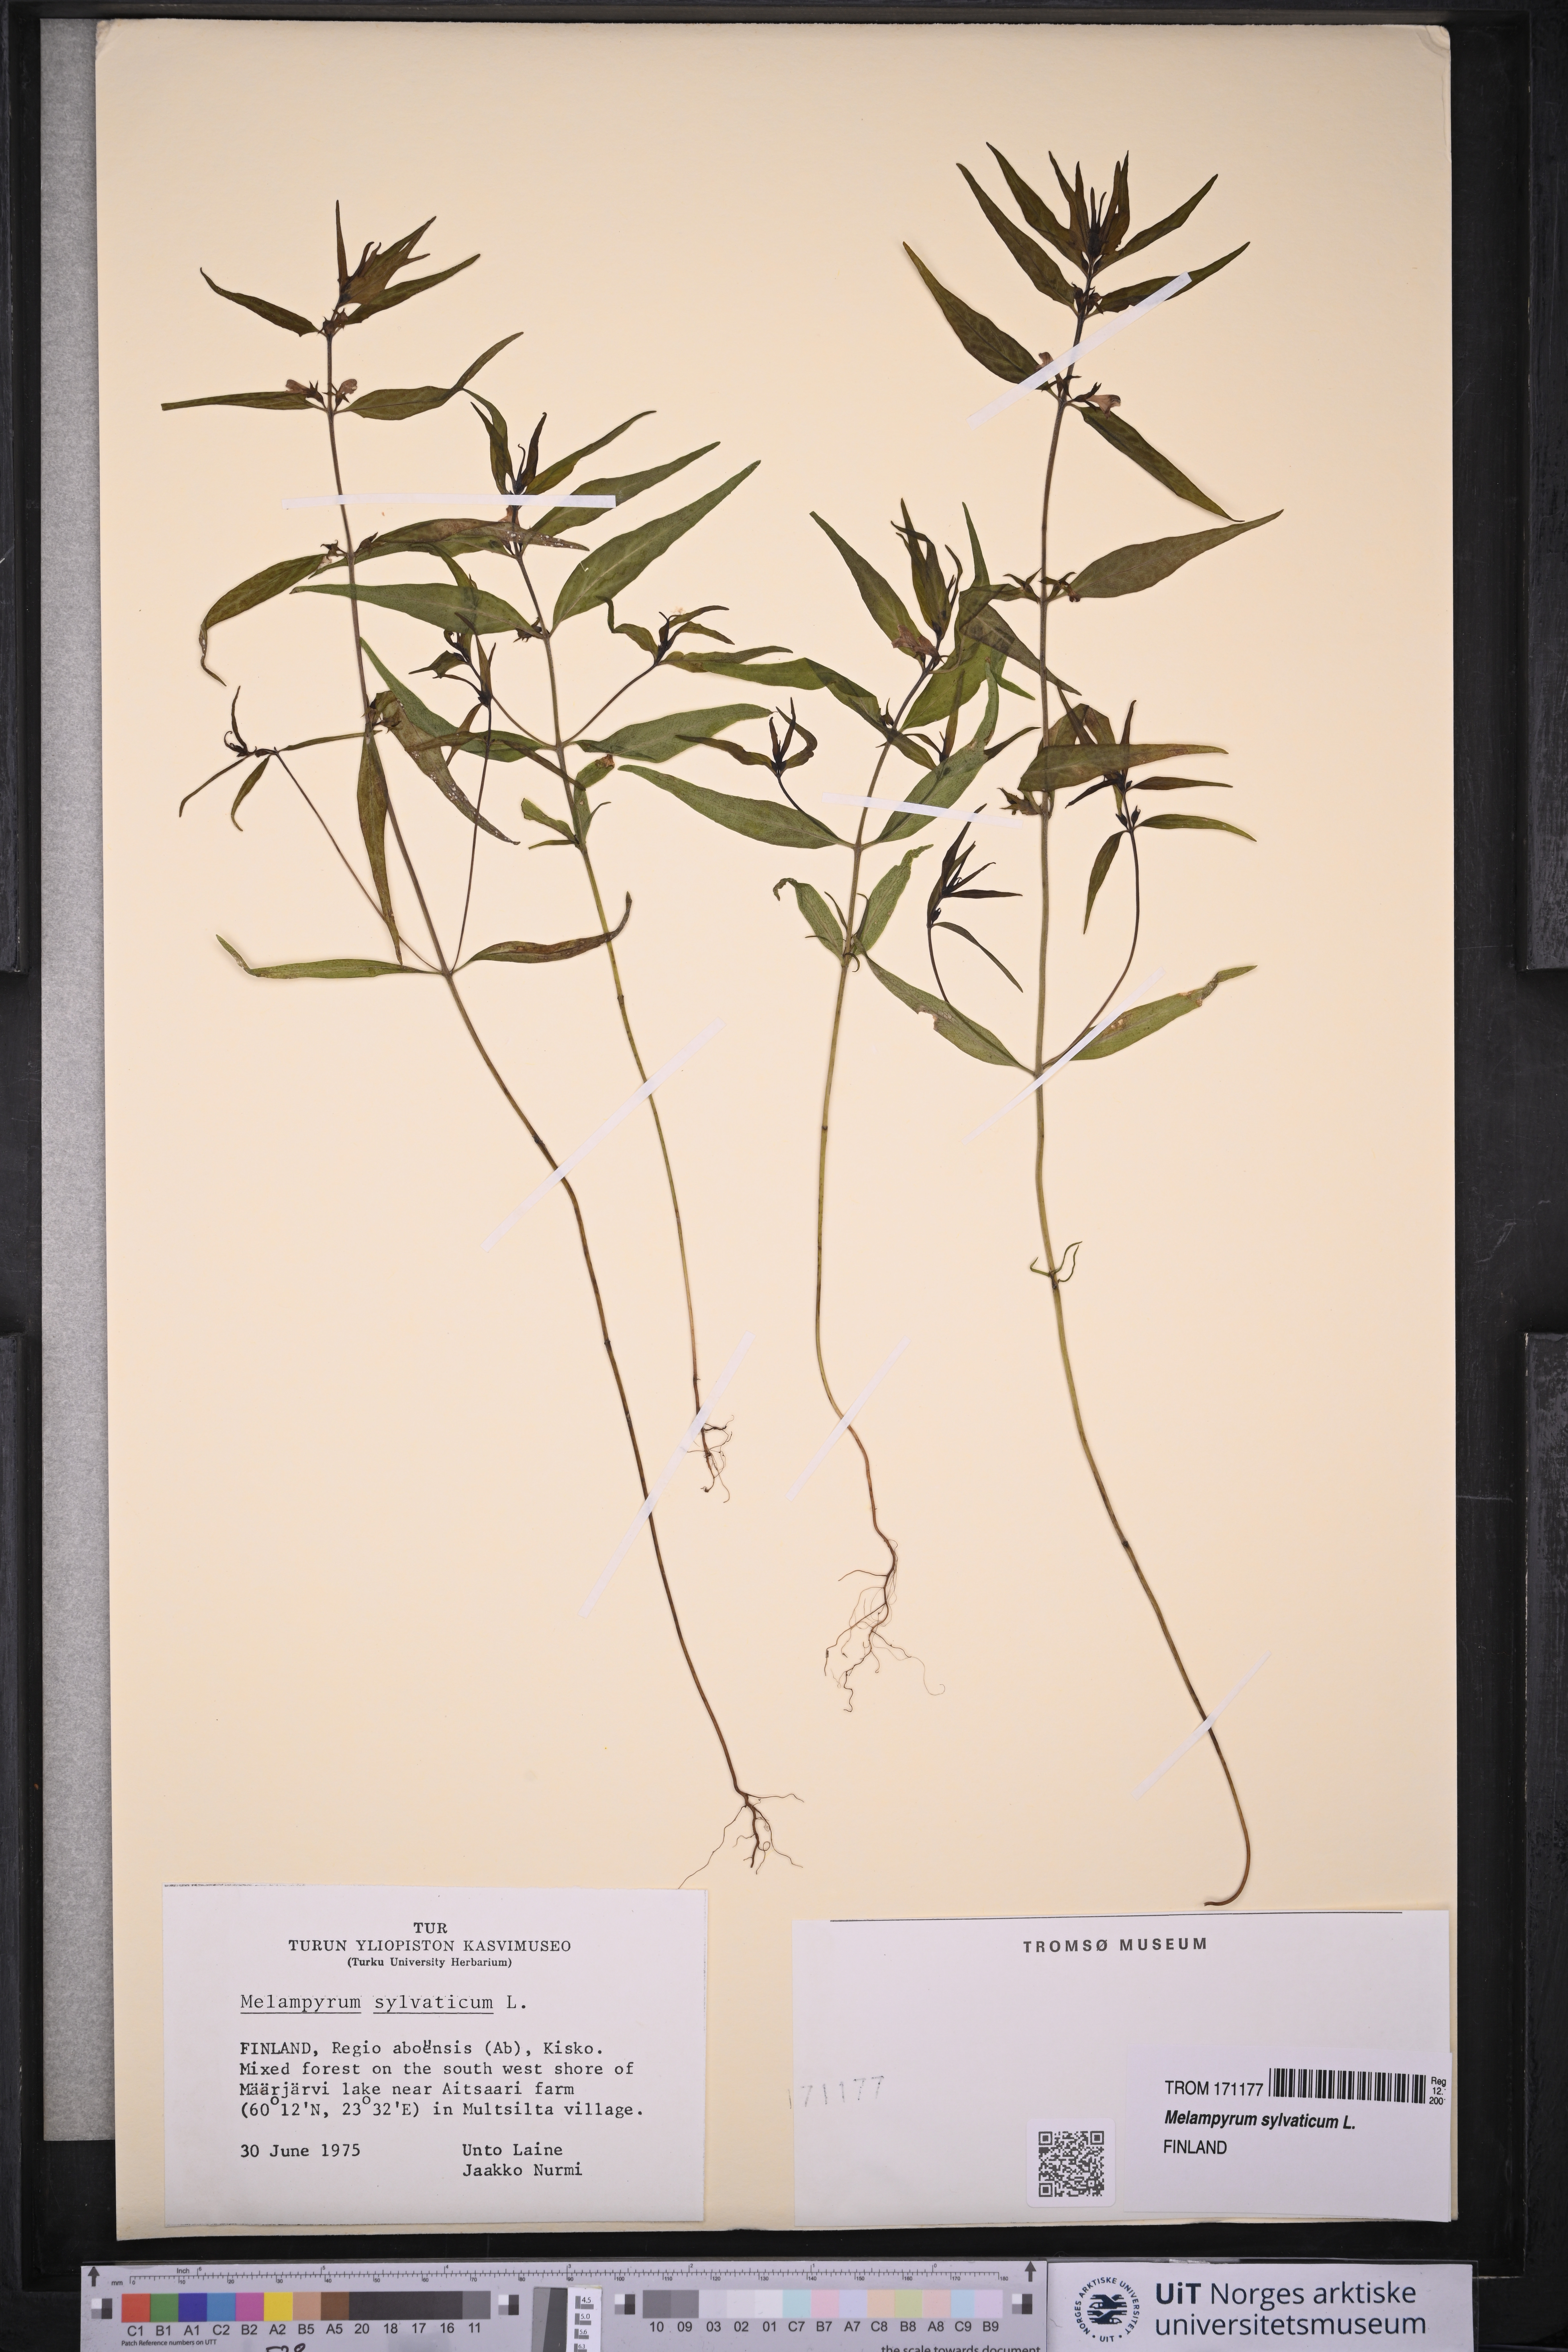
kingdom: Plantae
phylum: Tracheophyta
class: Magnoliopsida
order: Lamiales
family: Orobanchaceae
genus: Melampyrum
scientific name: Melampyrum sylvaticum
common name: Small cow-wheat
